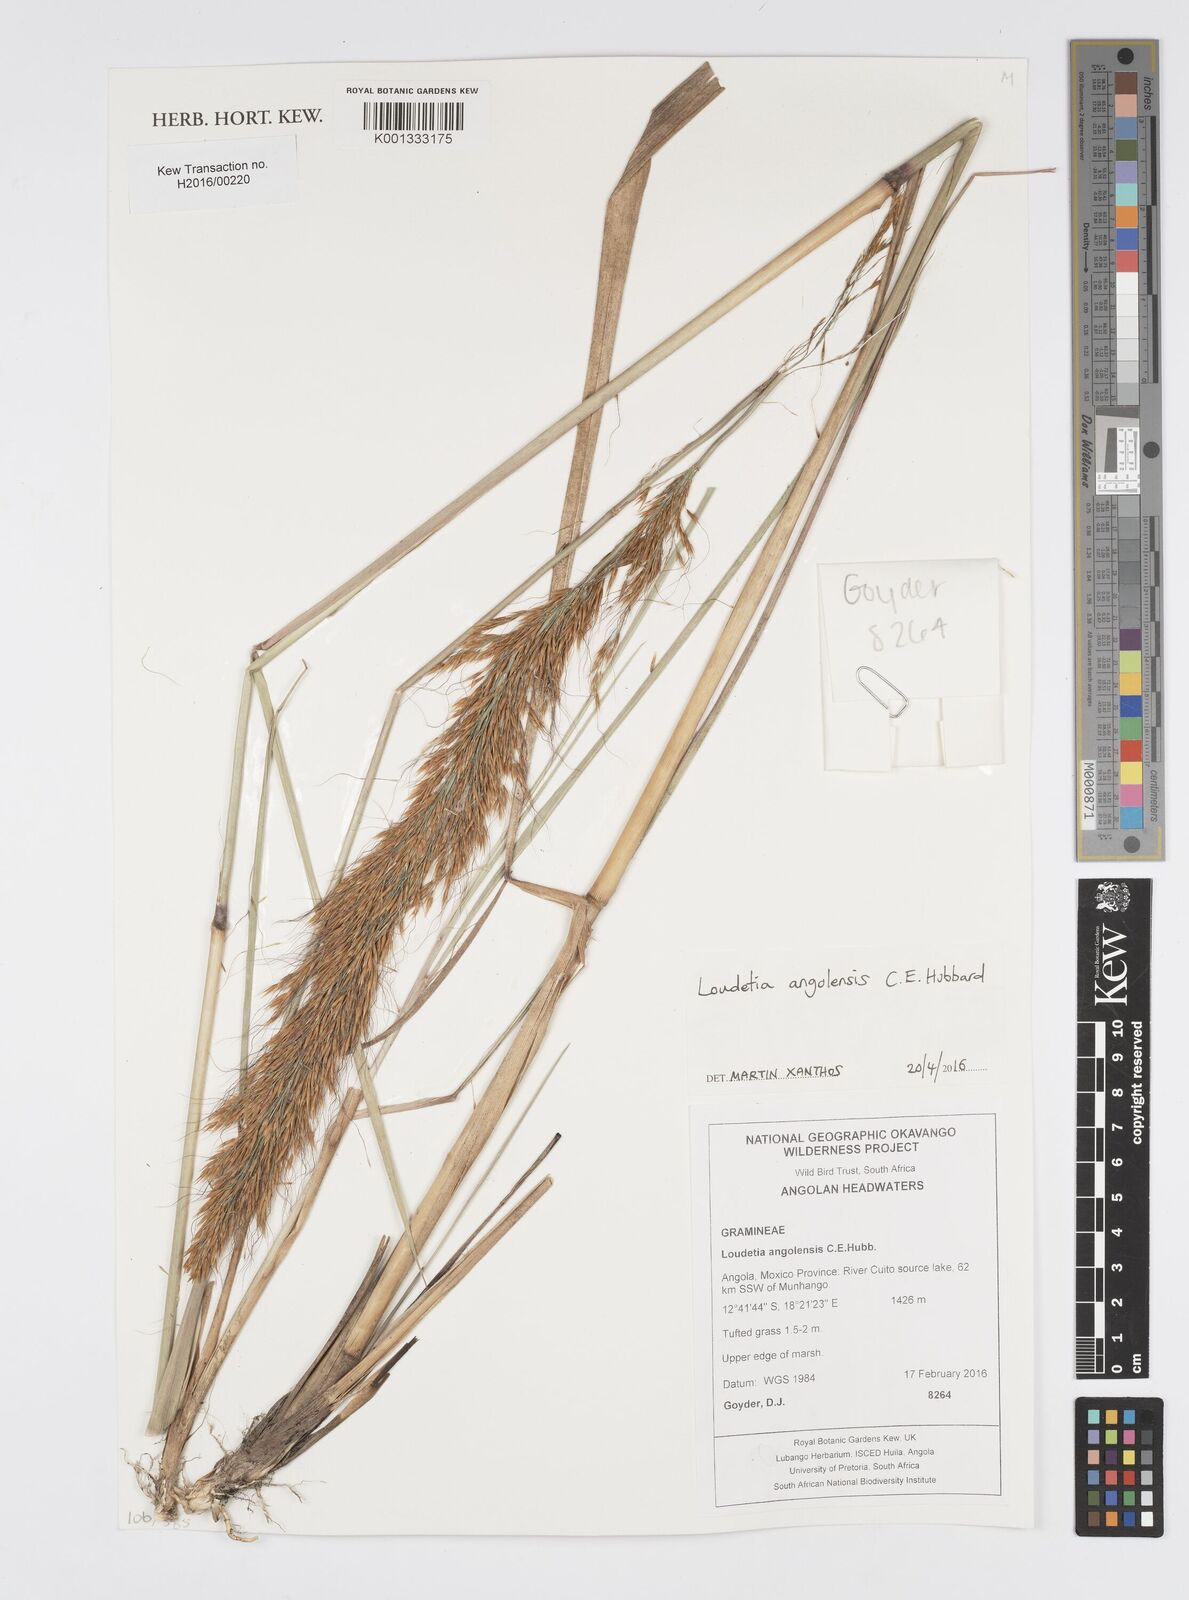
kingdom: Plantae
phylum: Tracheophyta
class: Liliopsida
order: Poales
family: Poaceae
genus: Loudetia
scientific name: Loudetia angolensis
